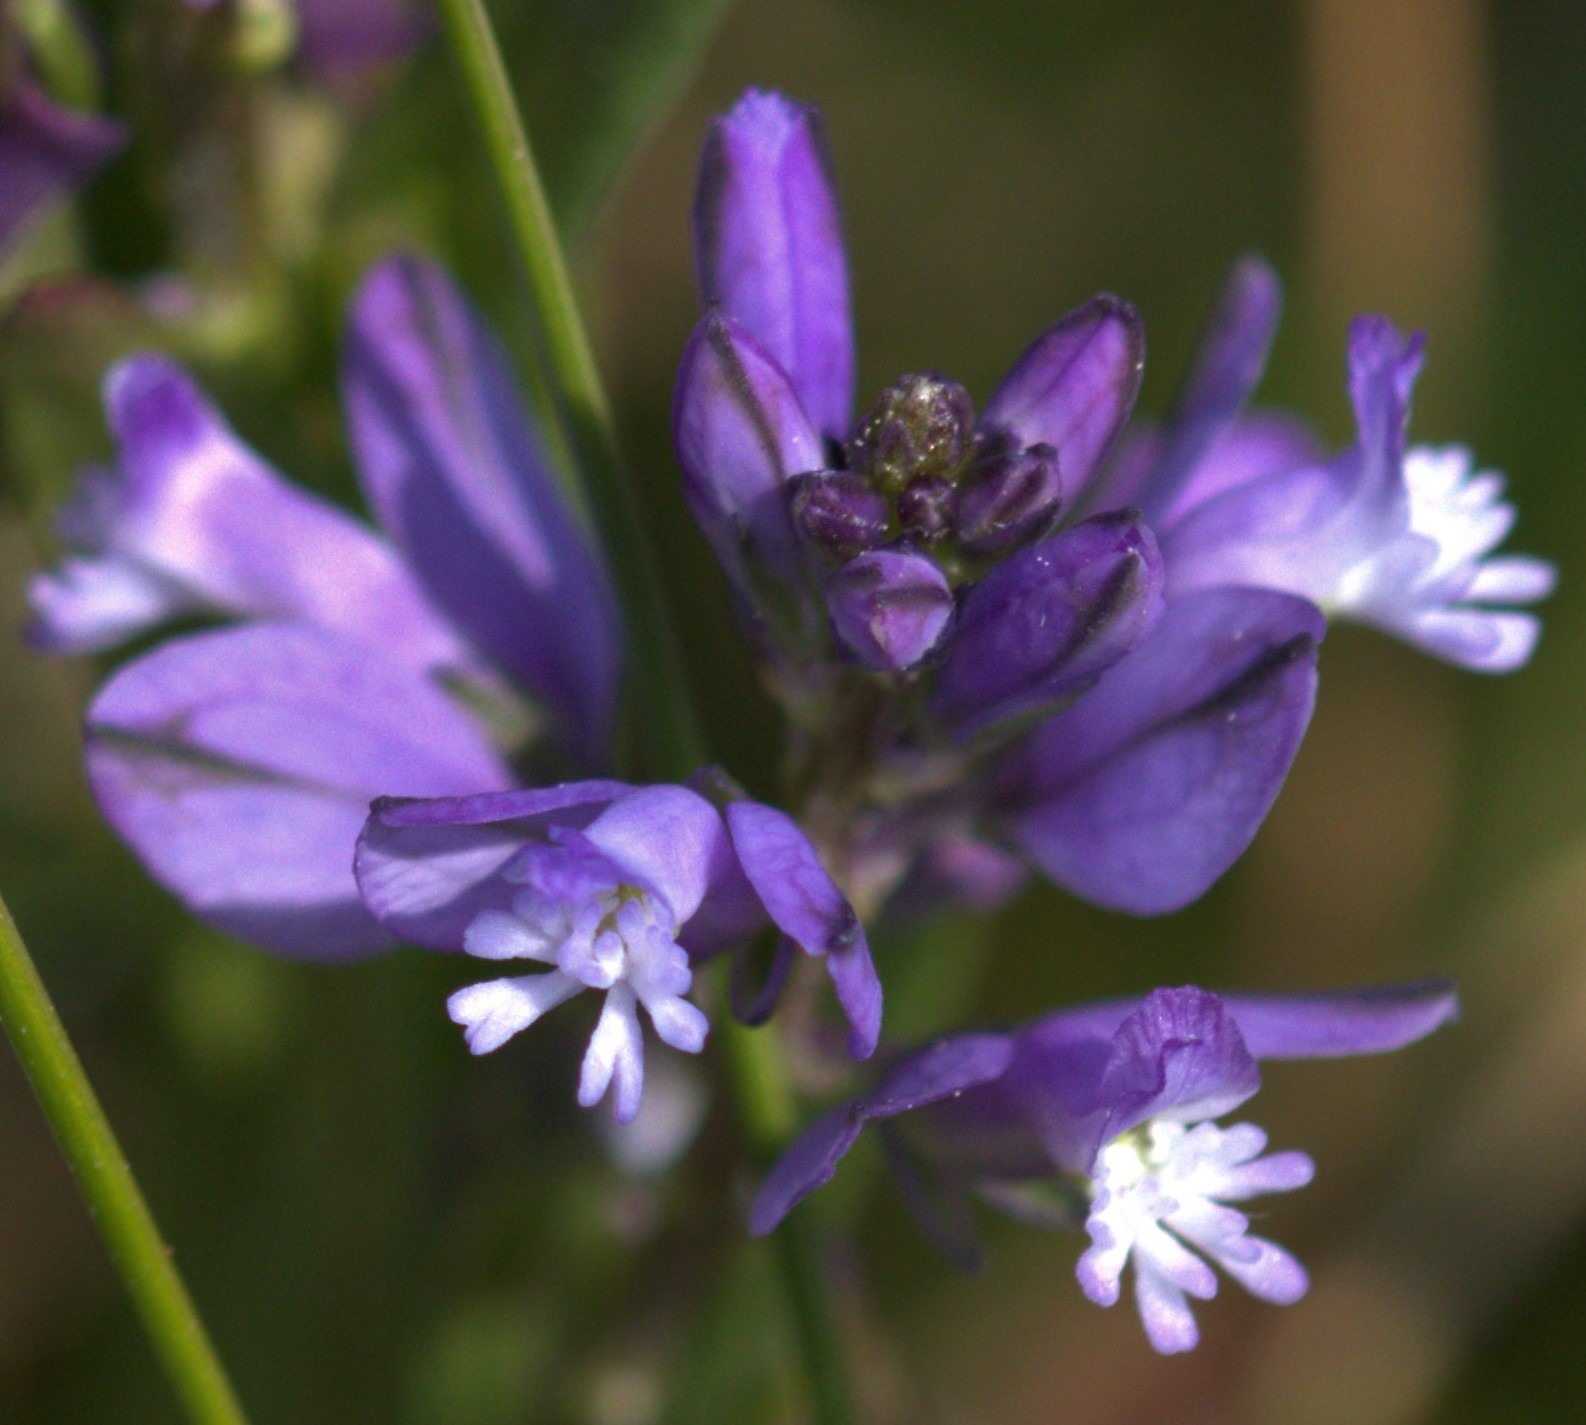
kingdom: Plantae
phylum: Tracheophyta
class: Magnoliopsida
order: Fabales
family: Polygalaceae
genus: Polygala
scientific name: Polygala vulgaris
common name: Almindelig mælkeurt
